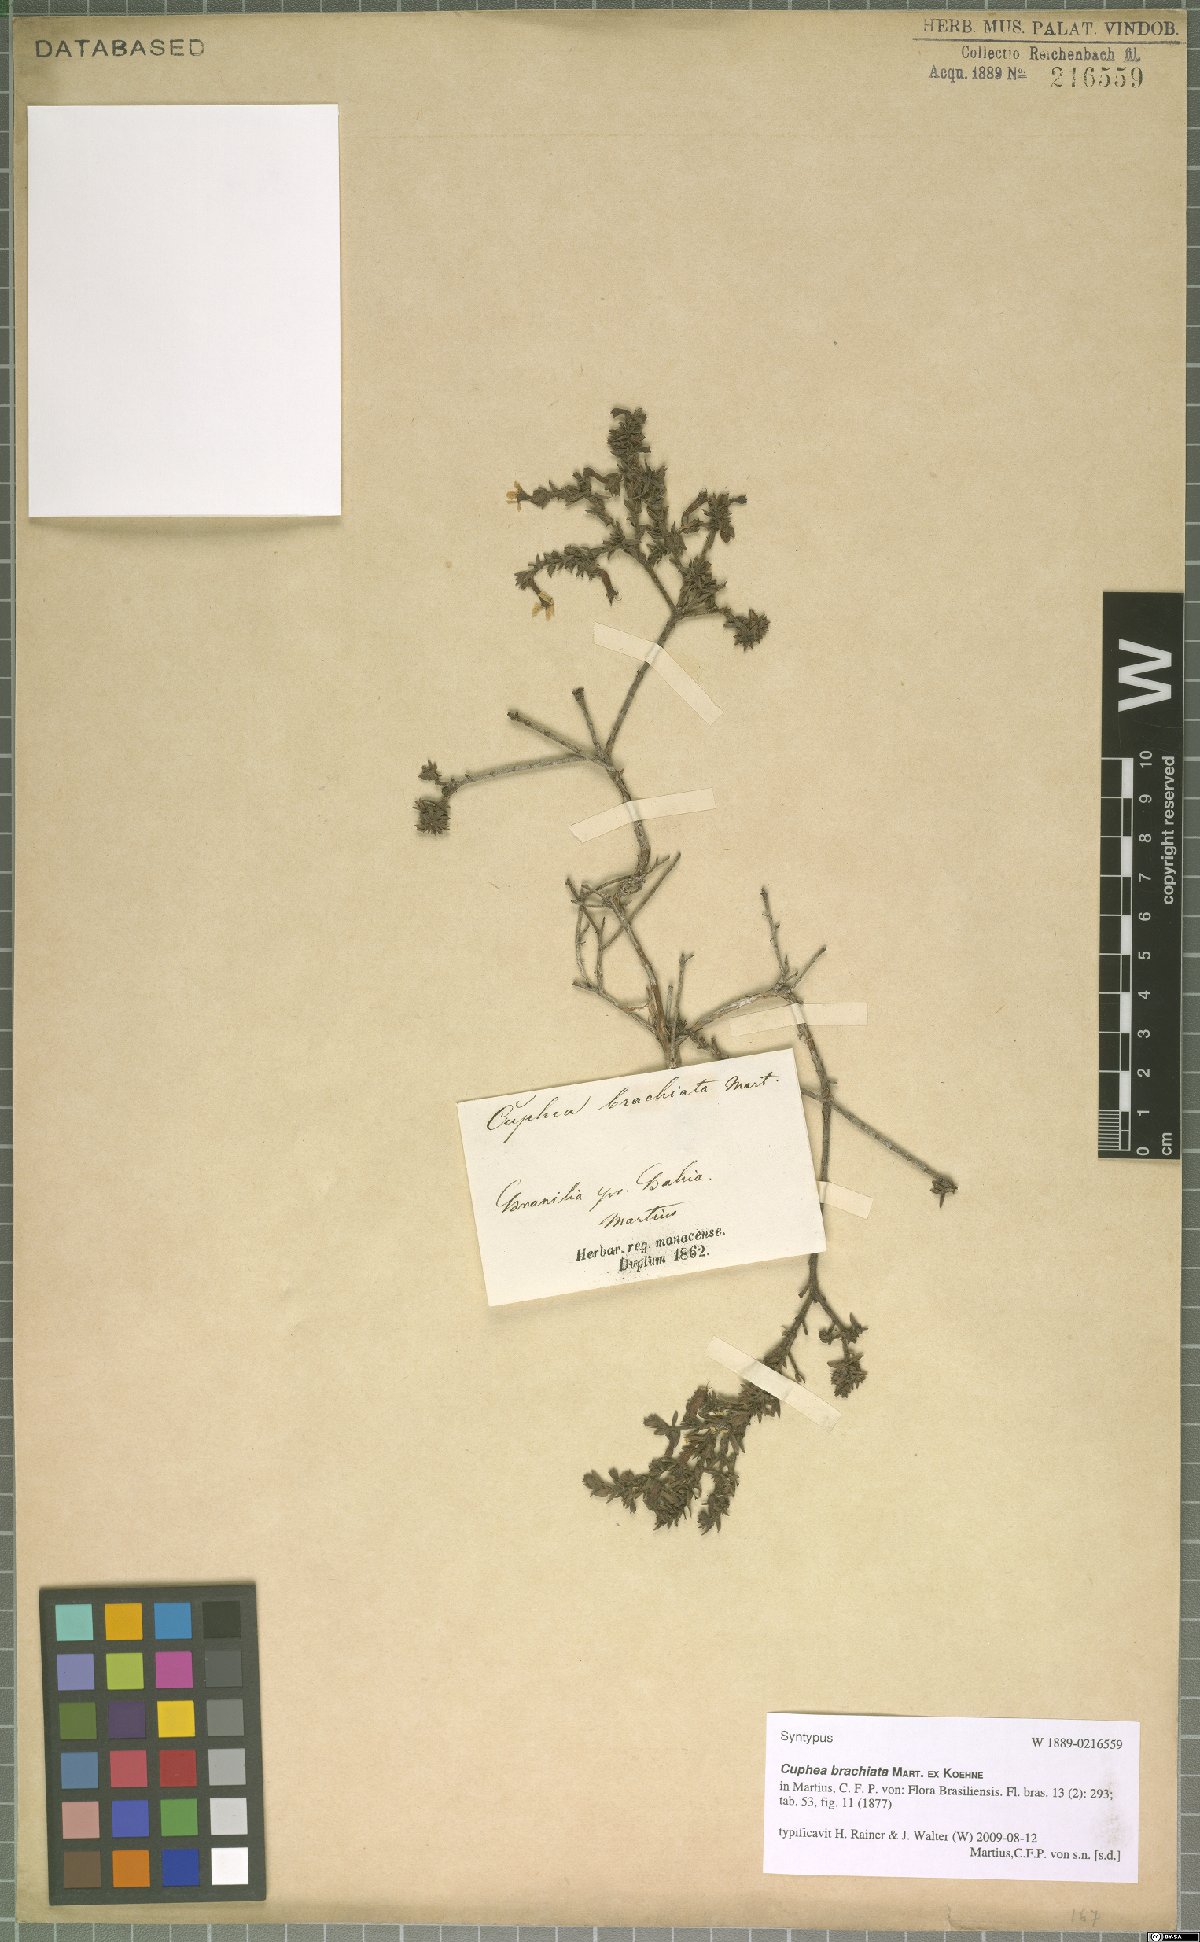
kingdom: Plantae
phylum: Tracheophyta
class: Magnoliopsida
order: Myrtales
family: Lythraceae
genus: Cuphea
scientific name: Cuphea brachiata
